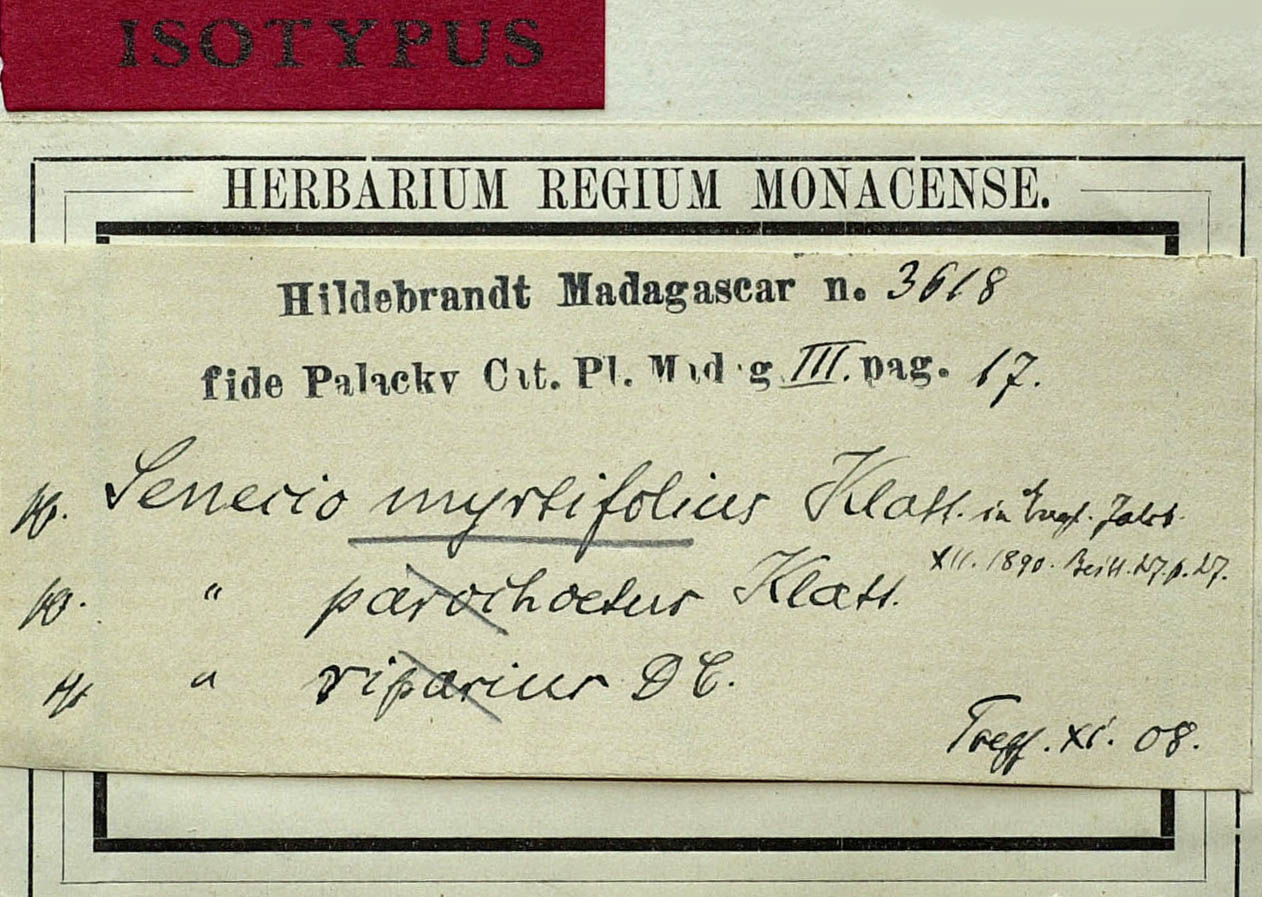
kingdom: Plantae
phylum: Tracheophyta
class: Magnoliopsida
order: Asterales
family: Asteraceae
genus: Hubertia
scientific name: Hubertia myrtifolia
